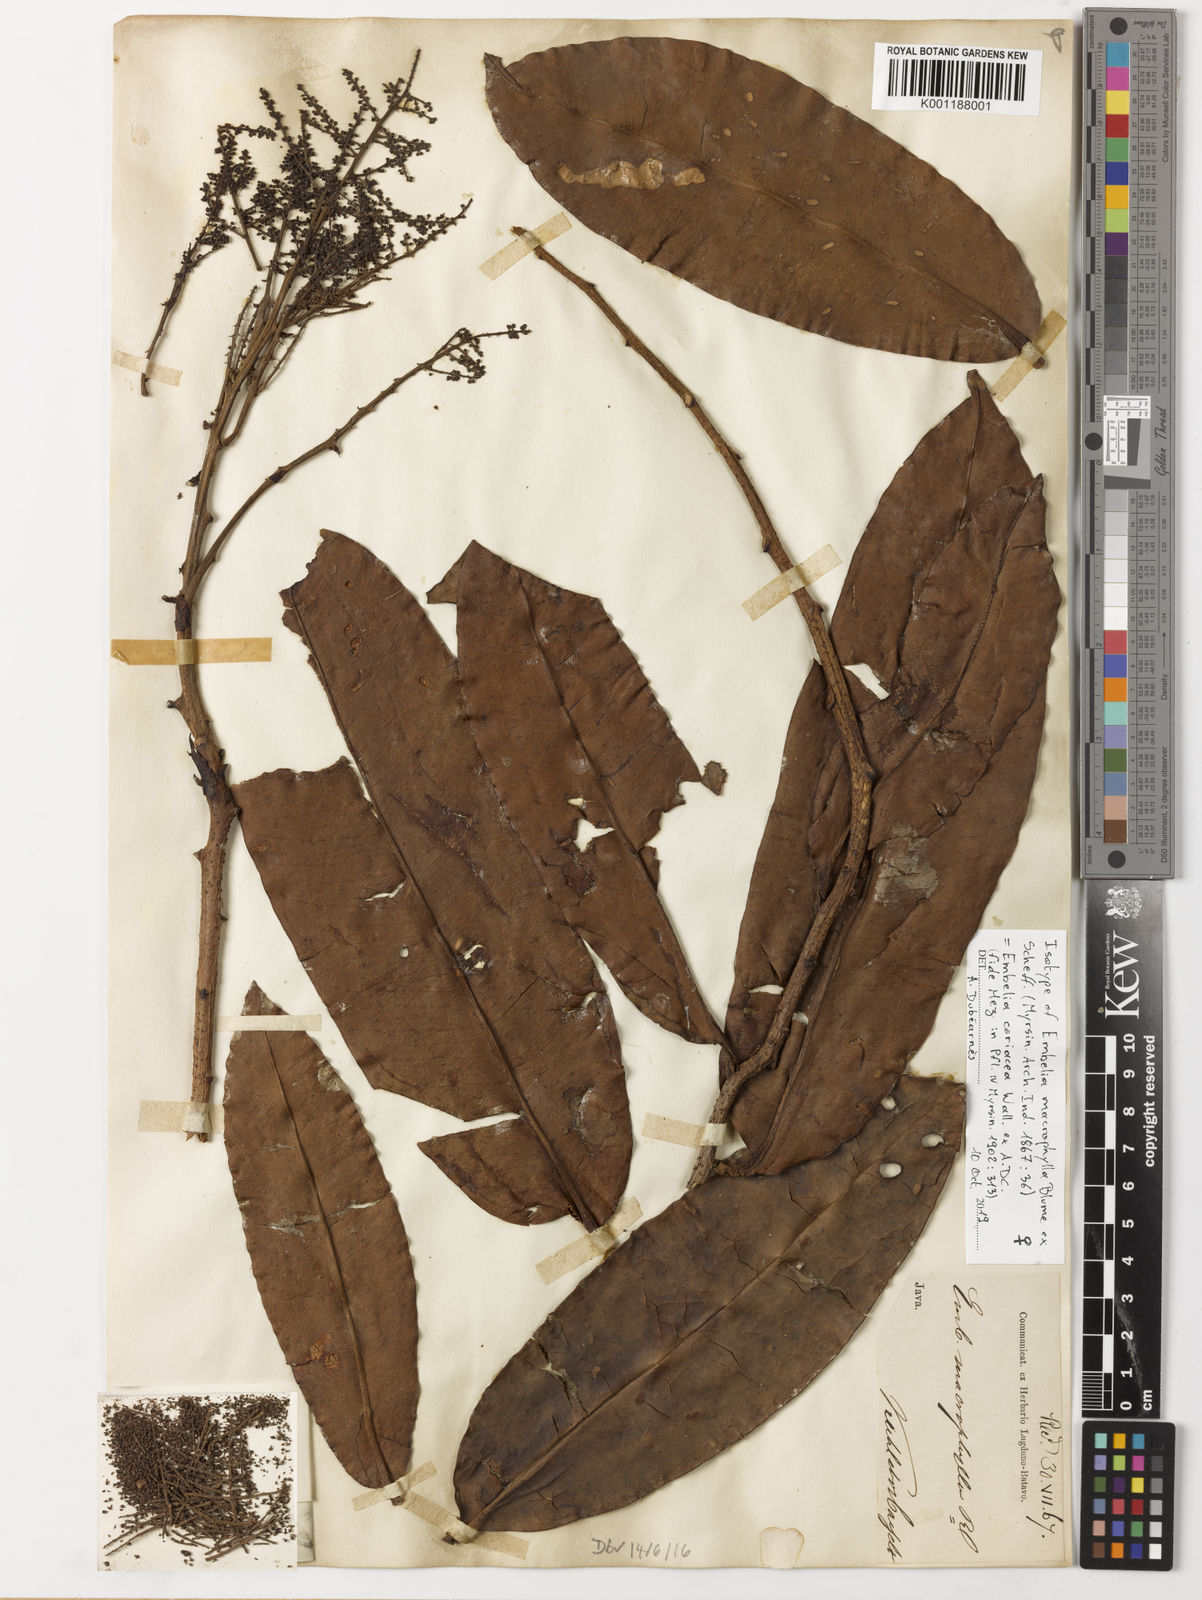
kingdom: Plantae
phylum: Tracheophyta
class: Magnoliopsida
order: Ericales
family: Primulaceae
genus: Embelia
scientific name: Embelia coriacea
